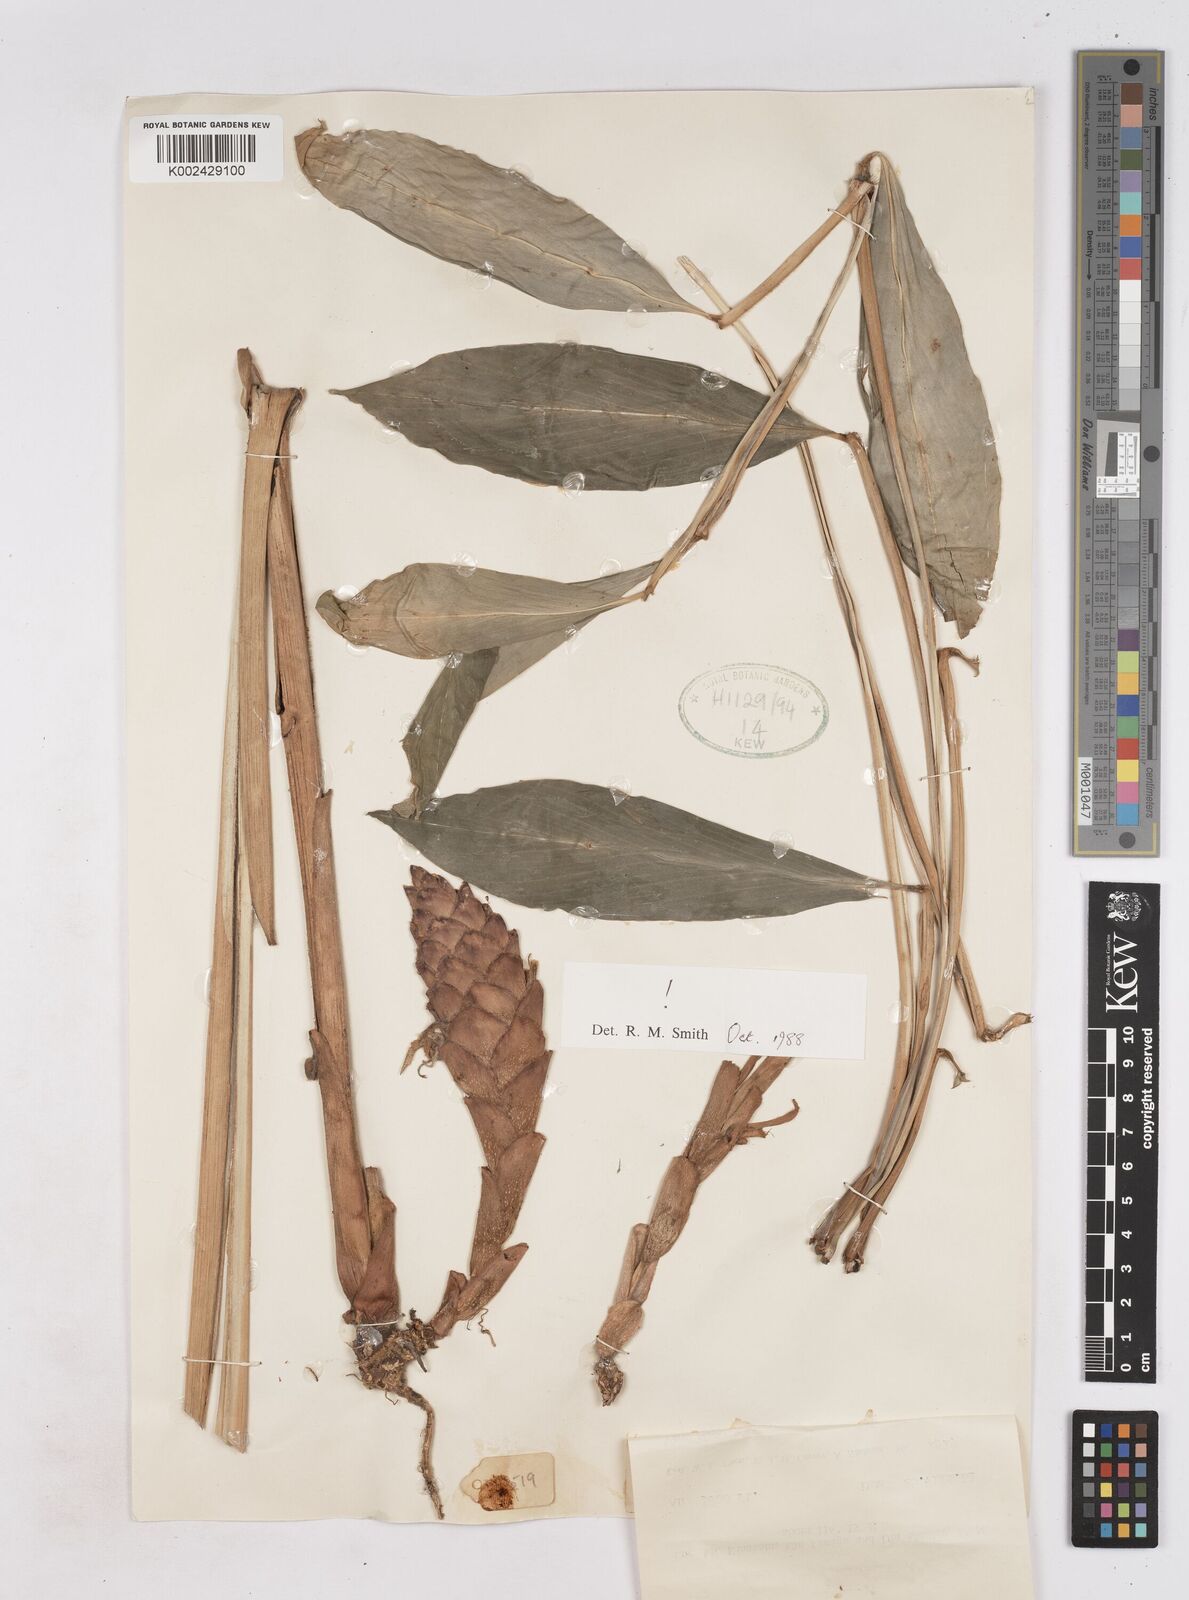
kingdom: Plantae
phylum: Tracheophyta
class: Liliopsida
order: Zingiberales
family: Zingiberaceae
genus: Zingiber
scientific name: Zingiber coloratum
